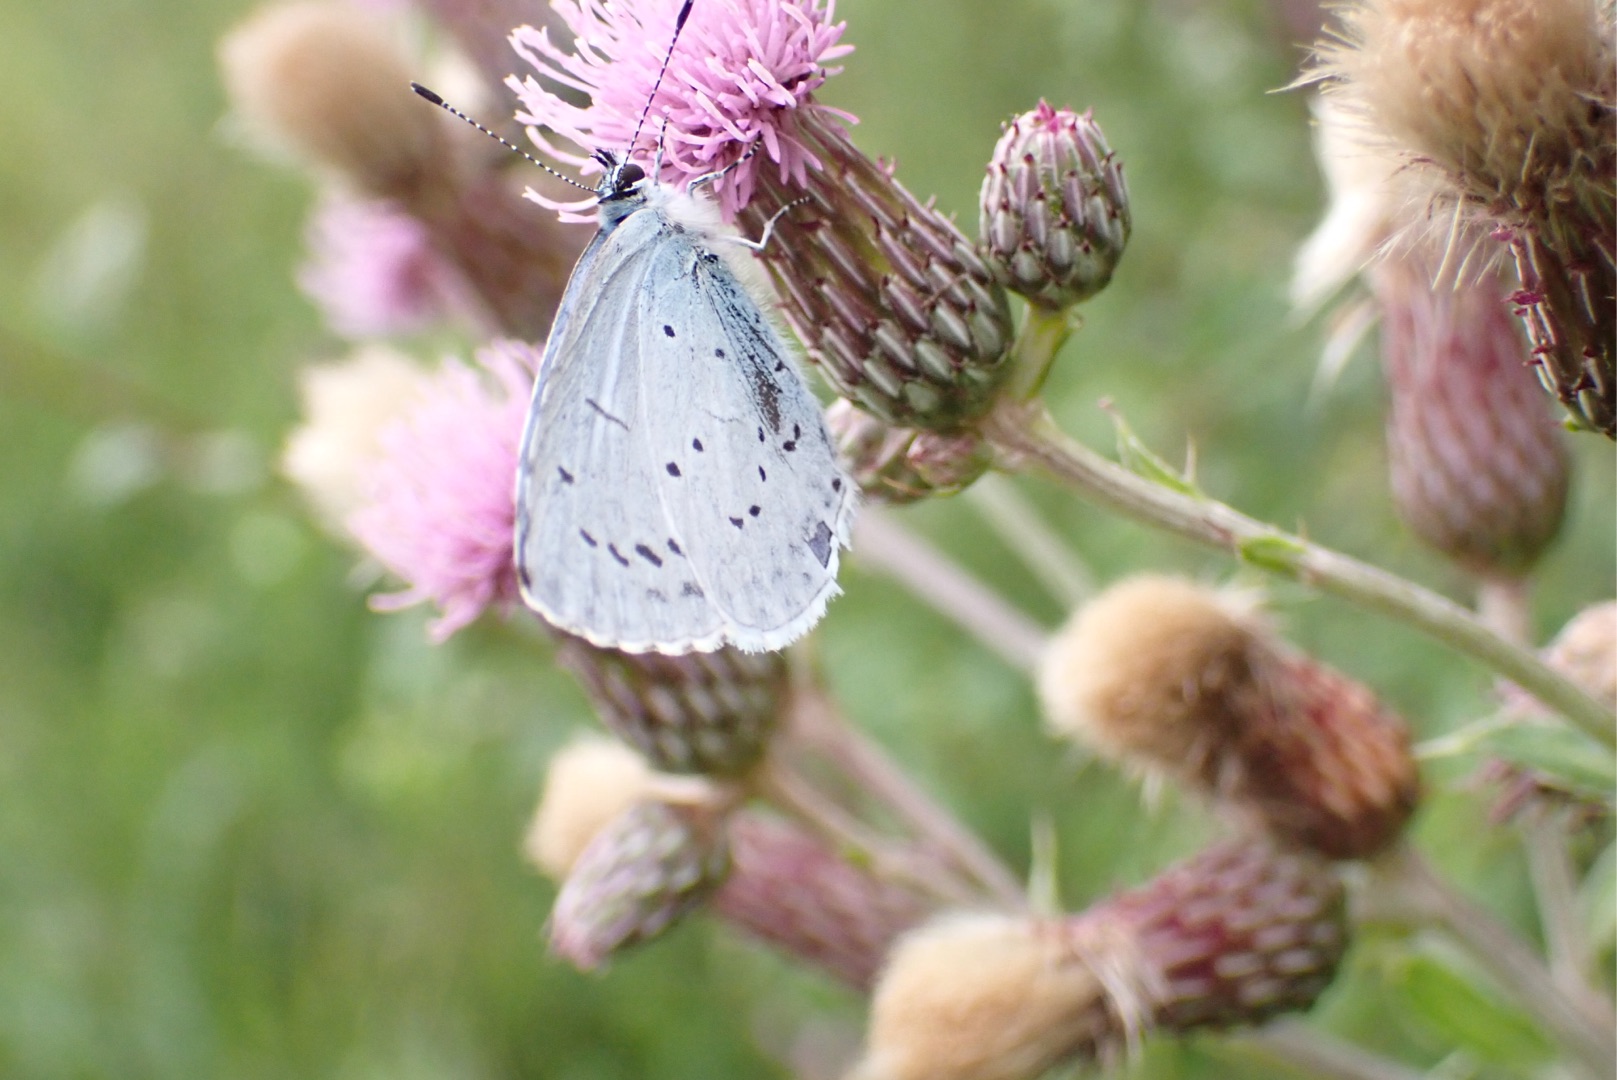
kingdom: Animalia
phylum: Arthropoda
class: Insecta
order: Lepidoptera
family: Lycaenidae
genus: Celastrina
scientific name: Celastrina argiolus
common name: Skovblåfugl
